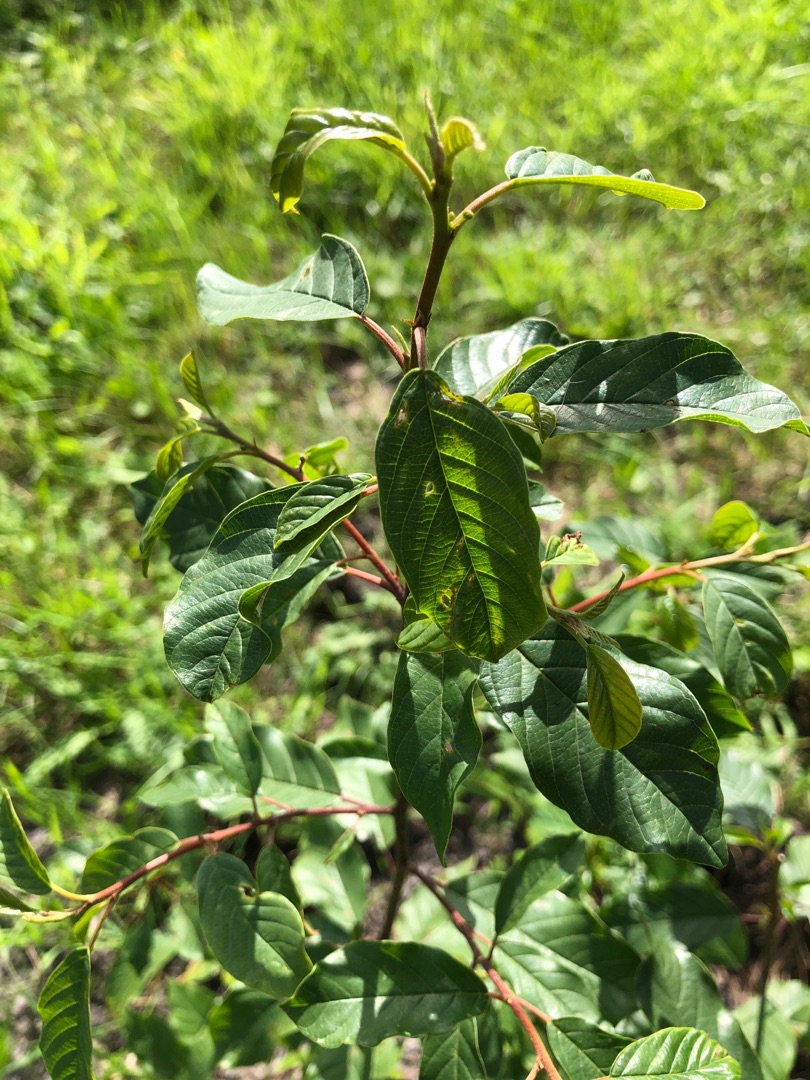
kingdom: Plantae
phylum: Tracheophyta
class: Magnoliopsida
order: Rosales
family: Rhamnaceae
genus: Frangula
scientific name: Frangula alnus
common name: Tørst
